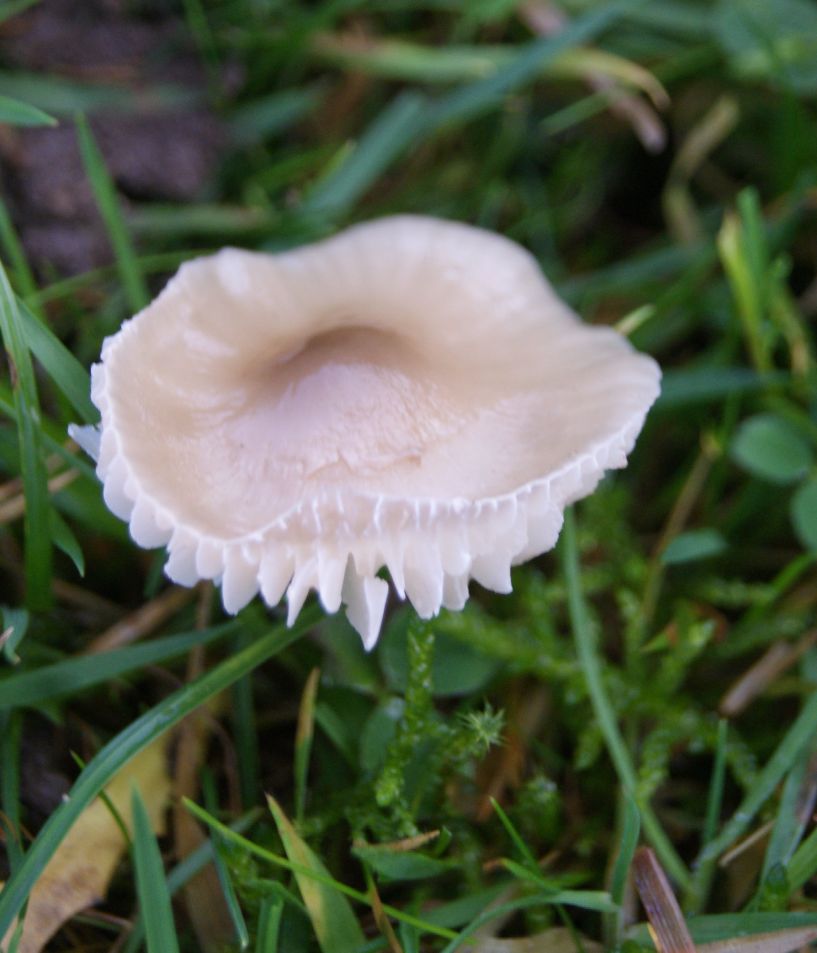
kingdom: Fungi
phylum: Basidiomycota
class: Agaricomycetes
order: Agaricales
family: Hygrophoraceae
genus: Gliophorus
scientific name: Gliophorus irrigatus
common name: slimet vokshat
